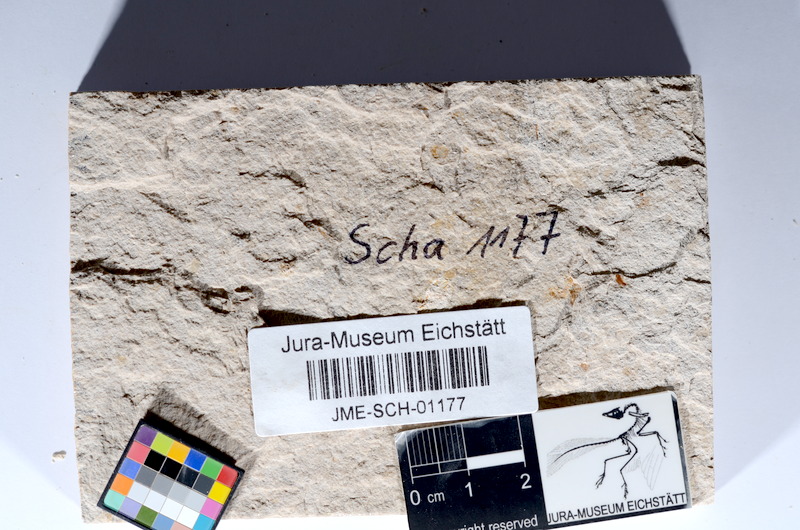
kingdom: Animalia
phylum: Chordata
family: Ascalaboidae
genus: Tharsis
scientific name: Tharsis dubius
